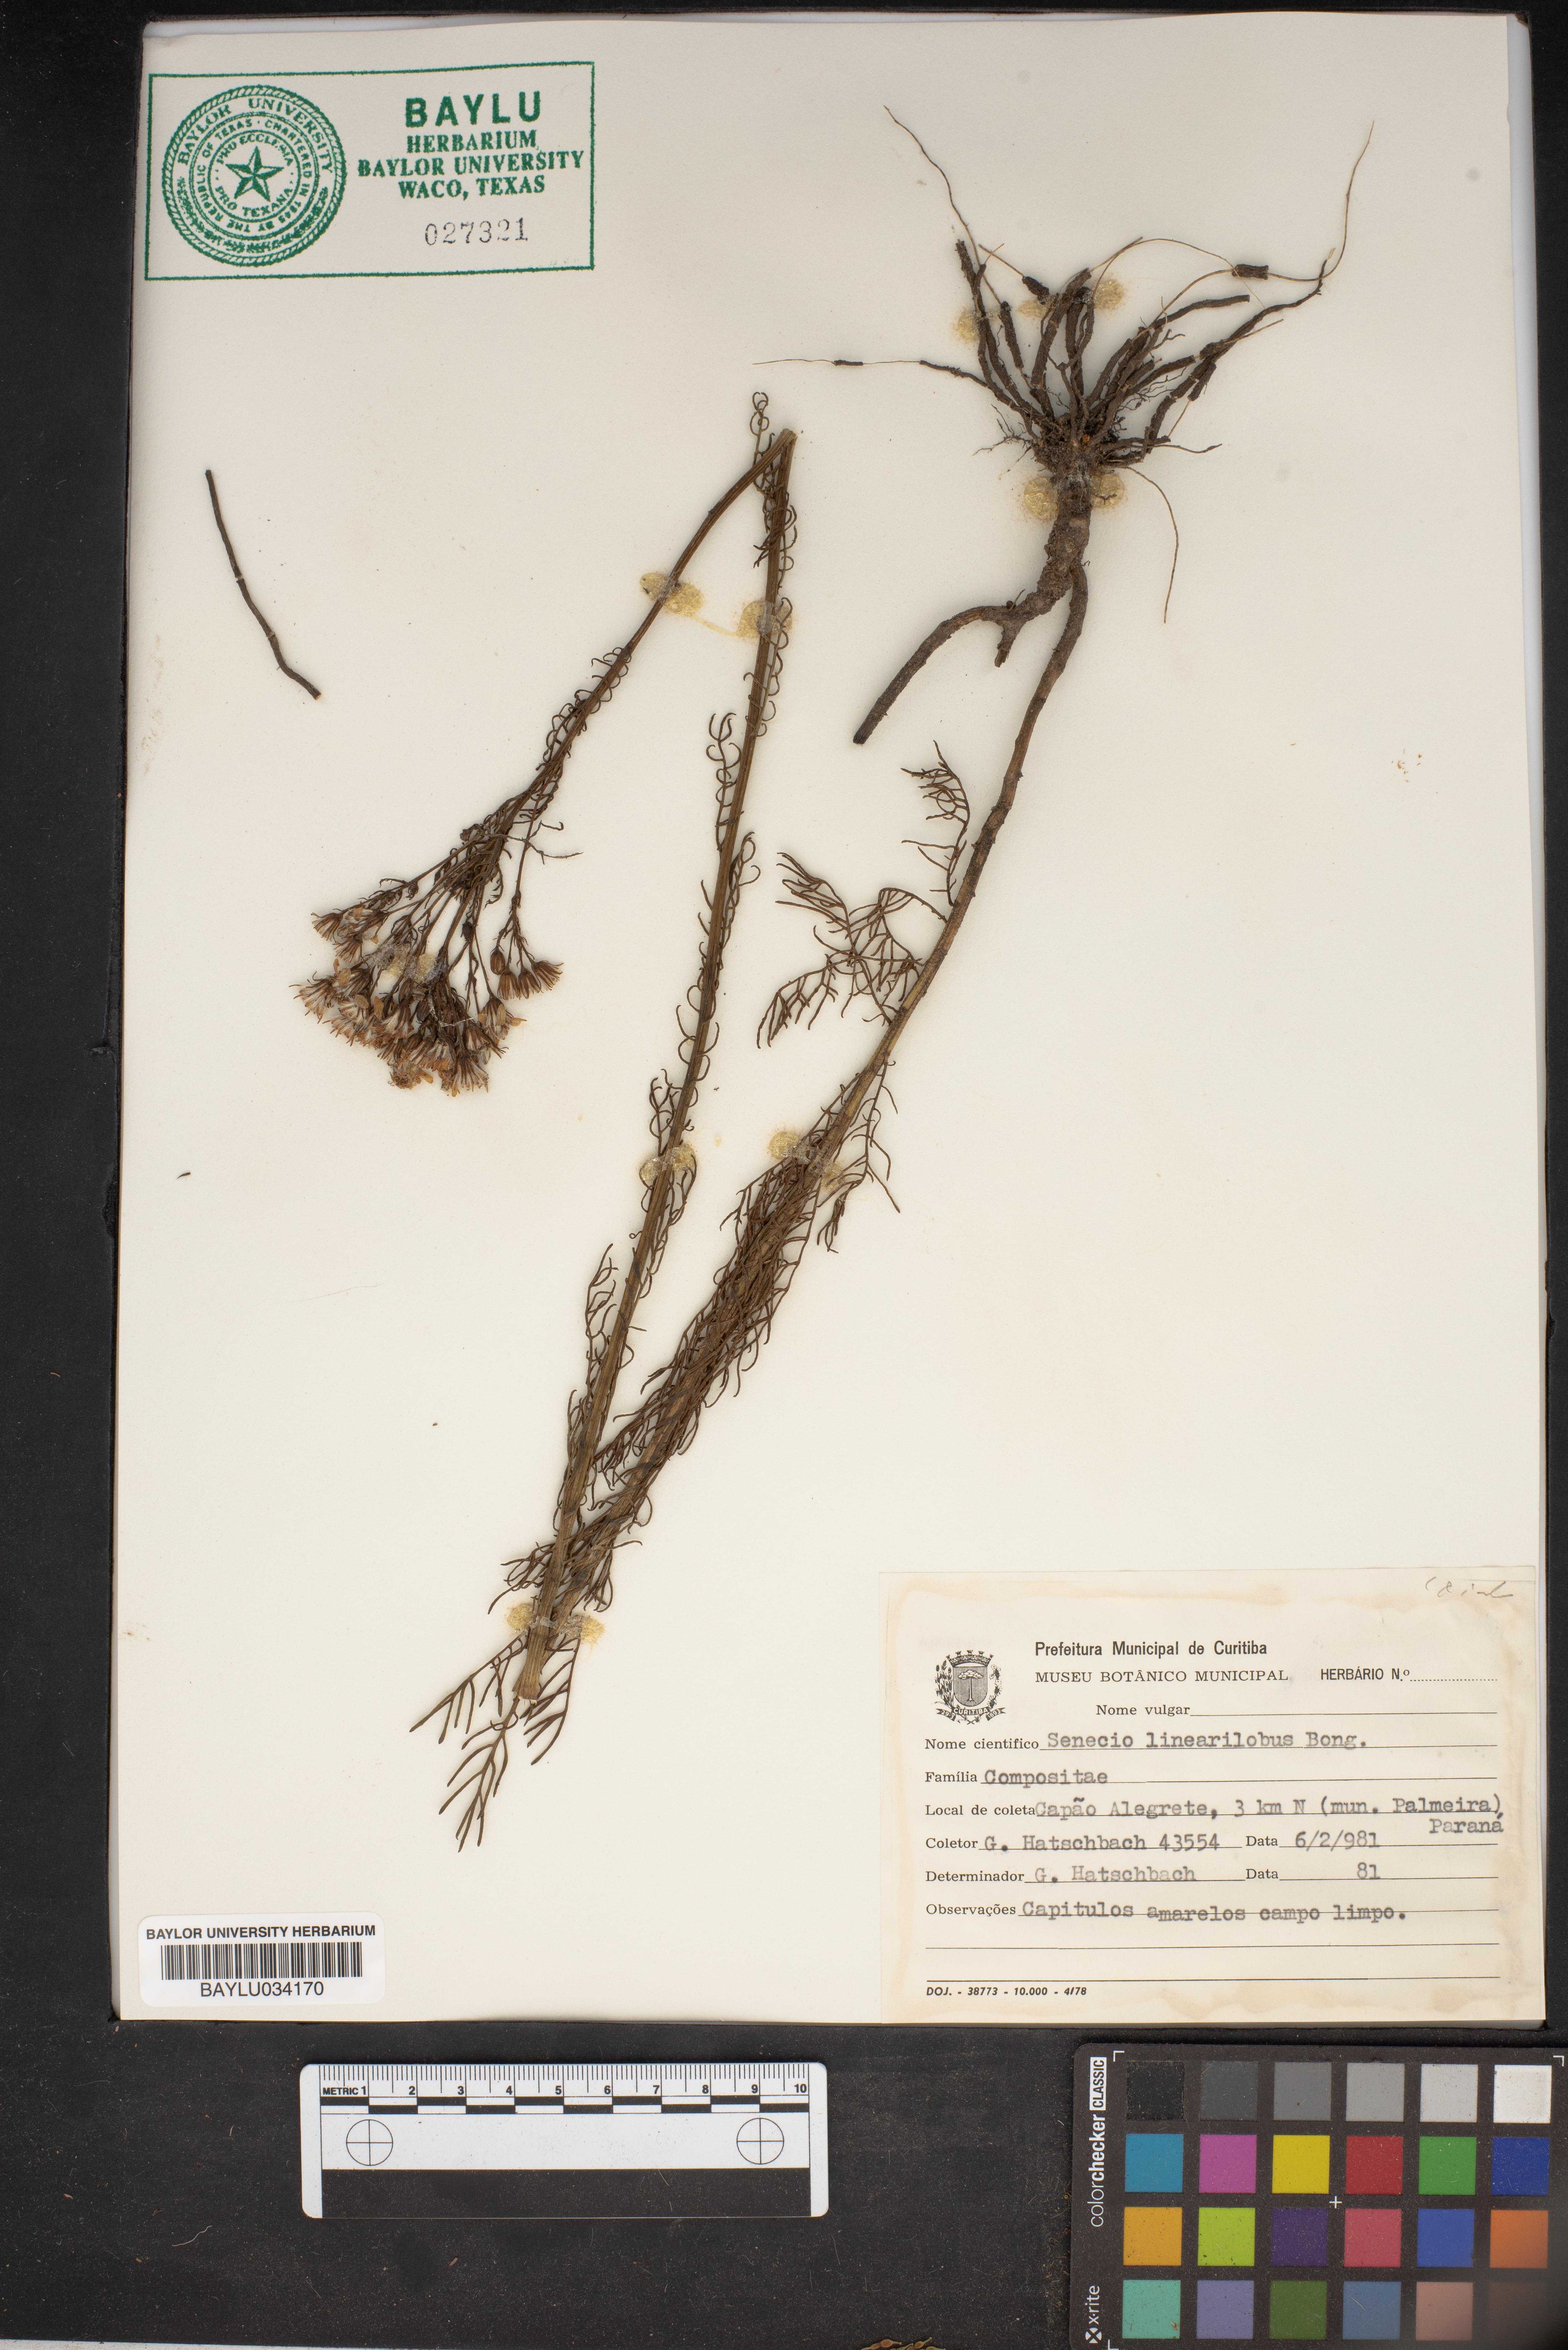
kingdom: Plantae
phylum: Tracheophyta
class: Magnoliopsida
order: Asterales
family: Asteraceae
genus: Senecio
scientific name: Senecio chilensis
